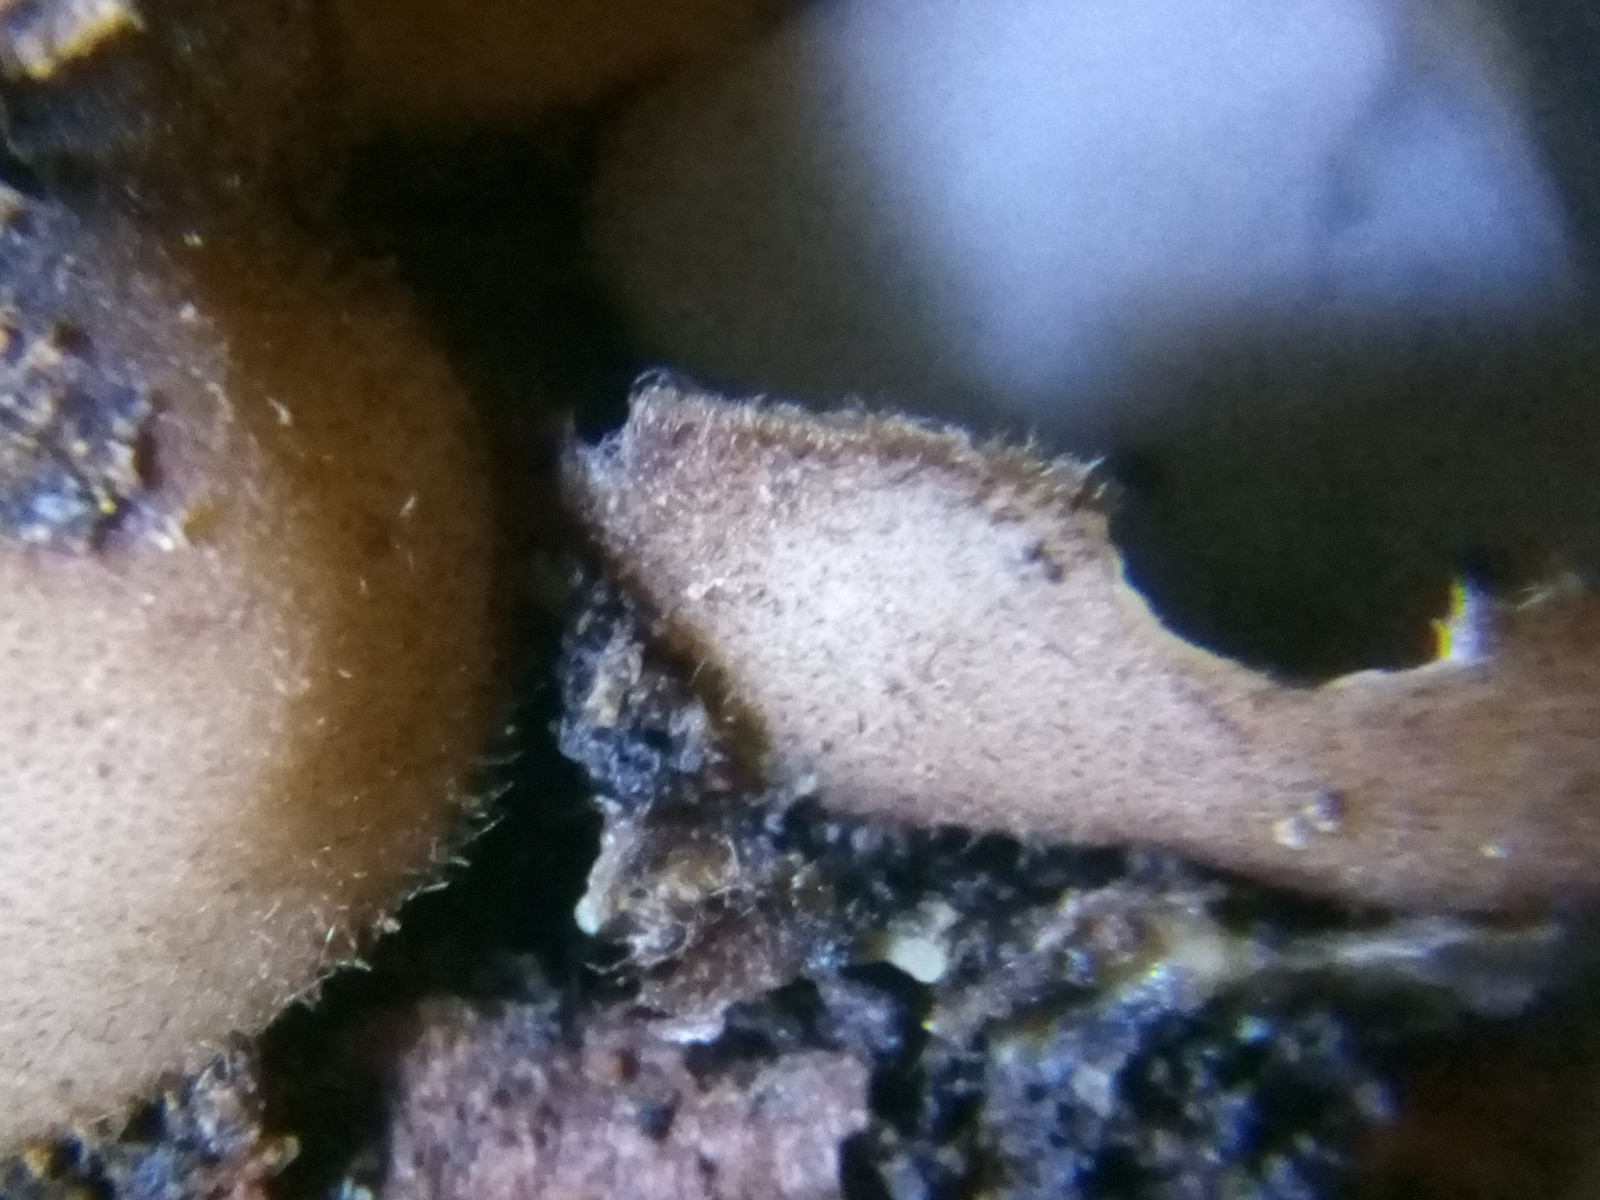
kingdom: Fungi
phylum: Ascomycota
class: Pezizomycetes
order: Pezizales
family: Pyronemataceae
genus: Humaria
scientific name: Humaria hemisphaerica
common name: halvkugleformet børstebæger
